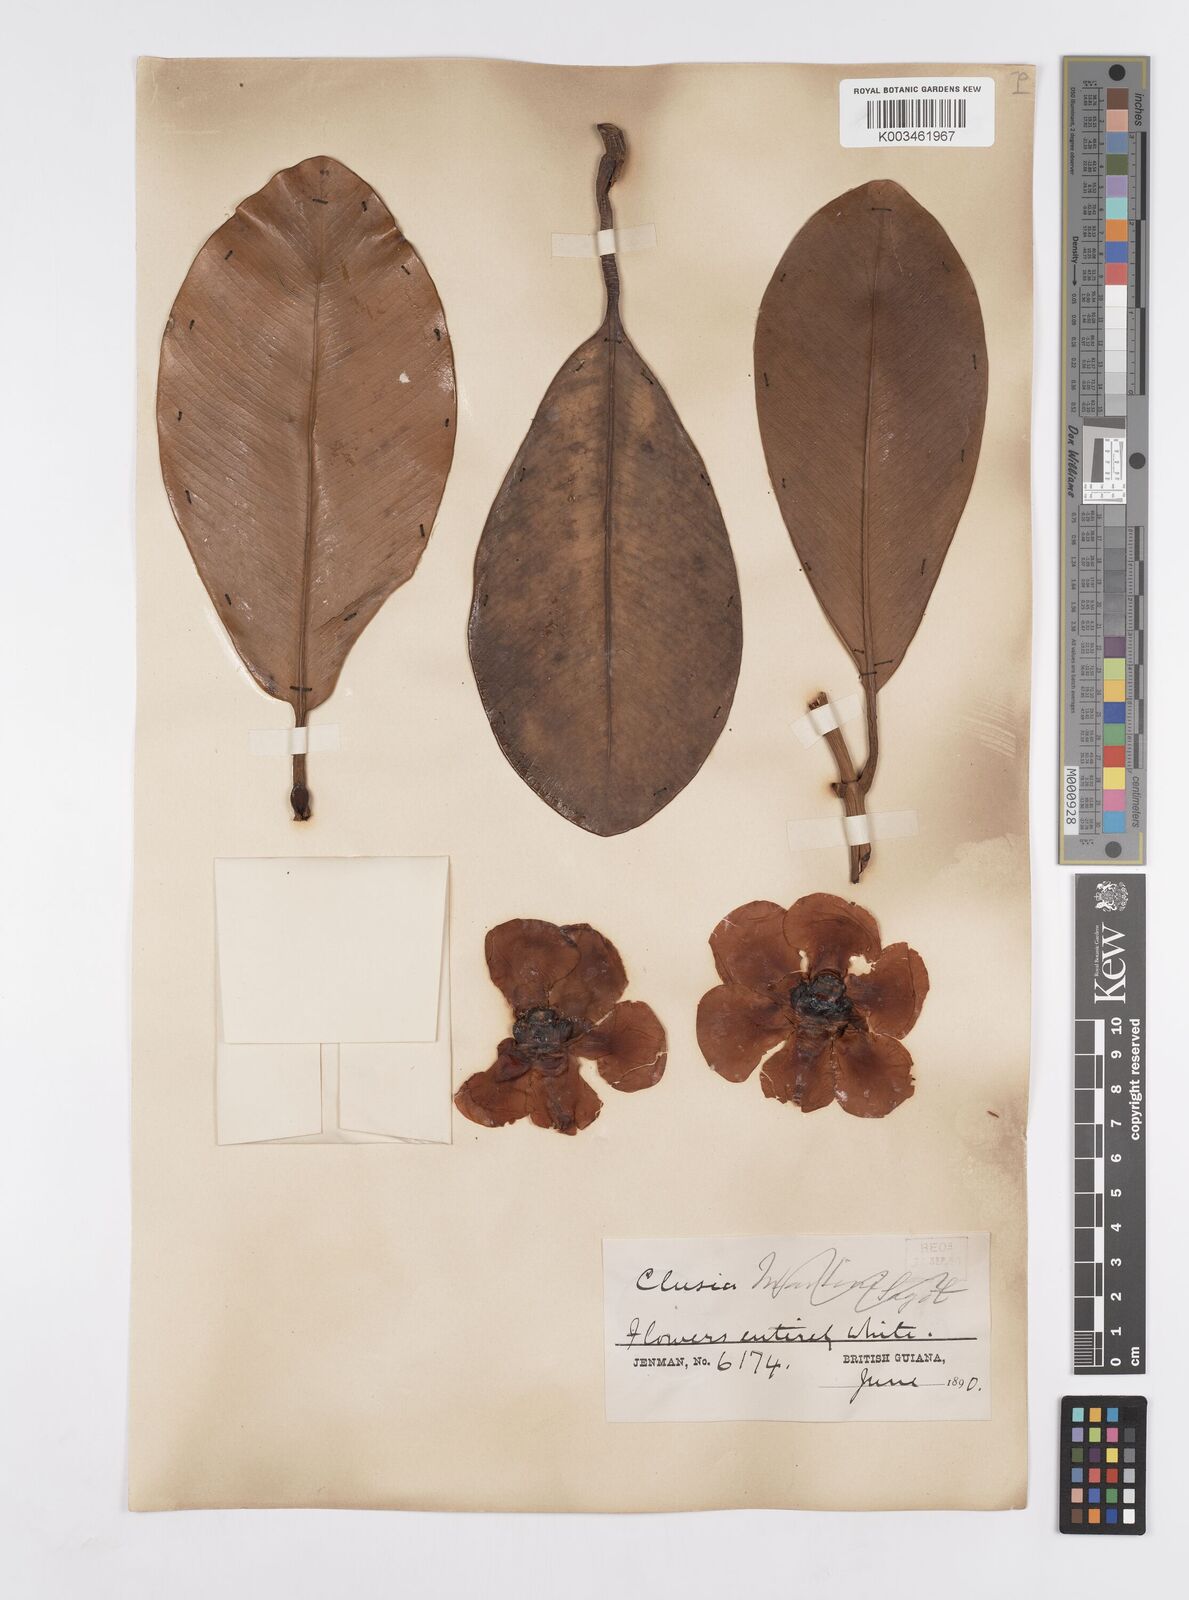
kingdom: Plantae
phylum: Tracheophyta
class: Magnoliopsida
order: Malpighiales
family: Clusiaceae
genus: Clusia
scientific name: Clusia palmicida
